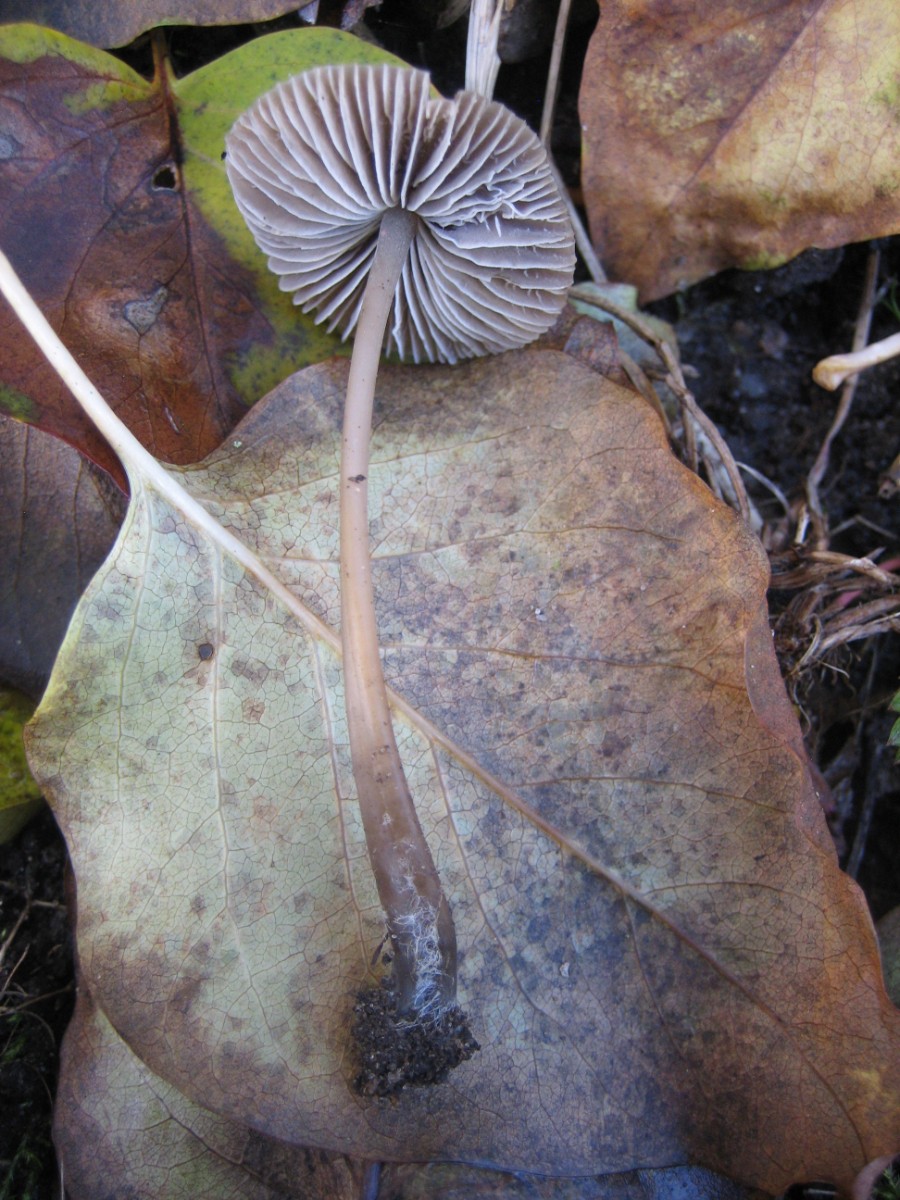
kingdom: Fungi
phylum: Basidiomycota
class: Agaricomycetes
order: Agaricales
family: Mycenaceae
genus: Mycena
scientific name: Mycena
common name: huesvamp
